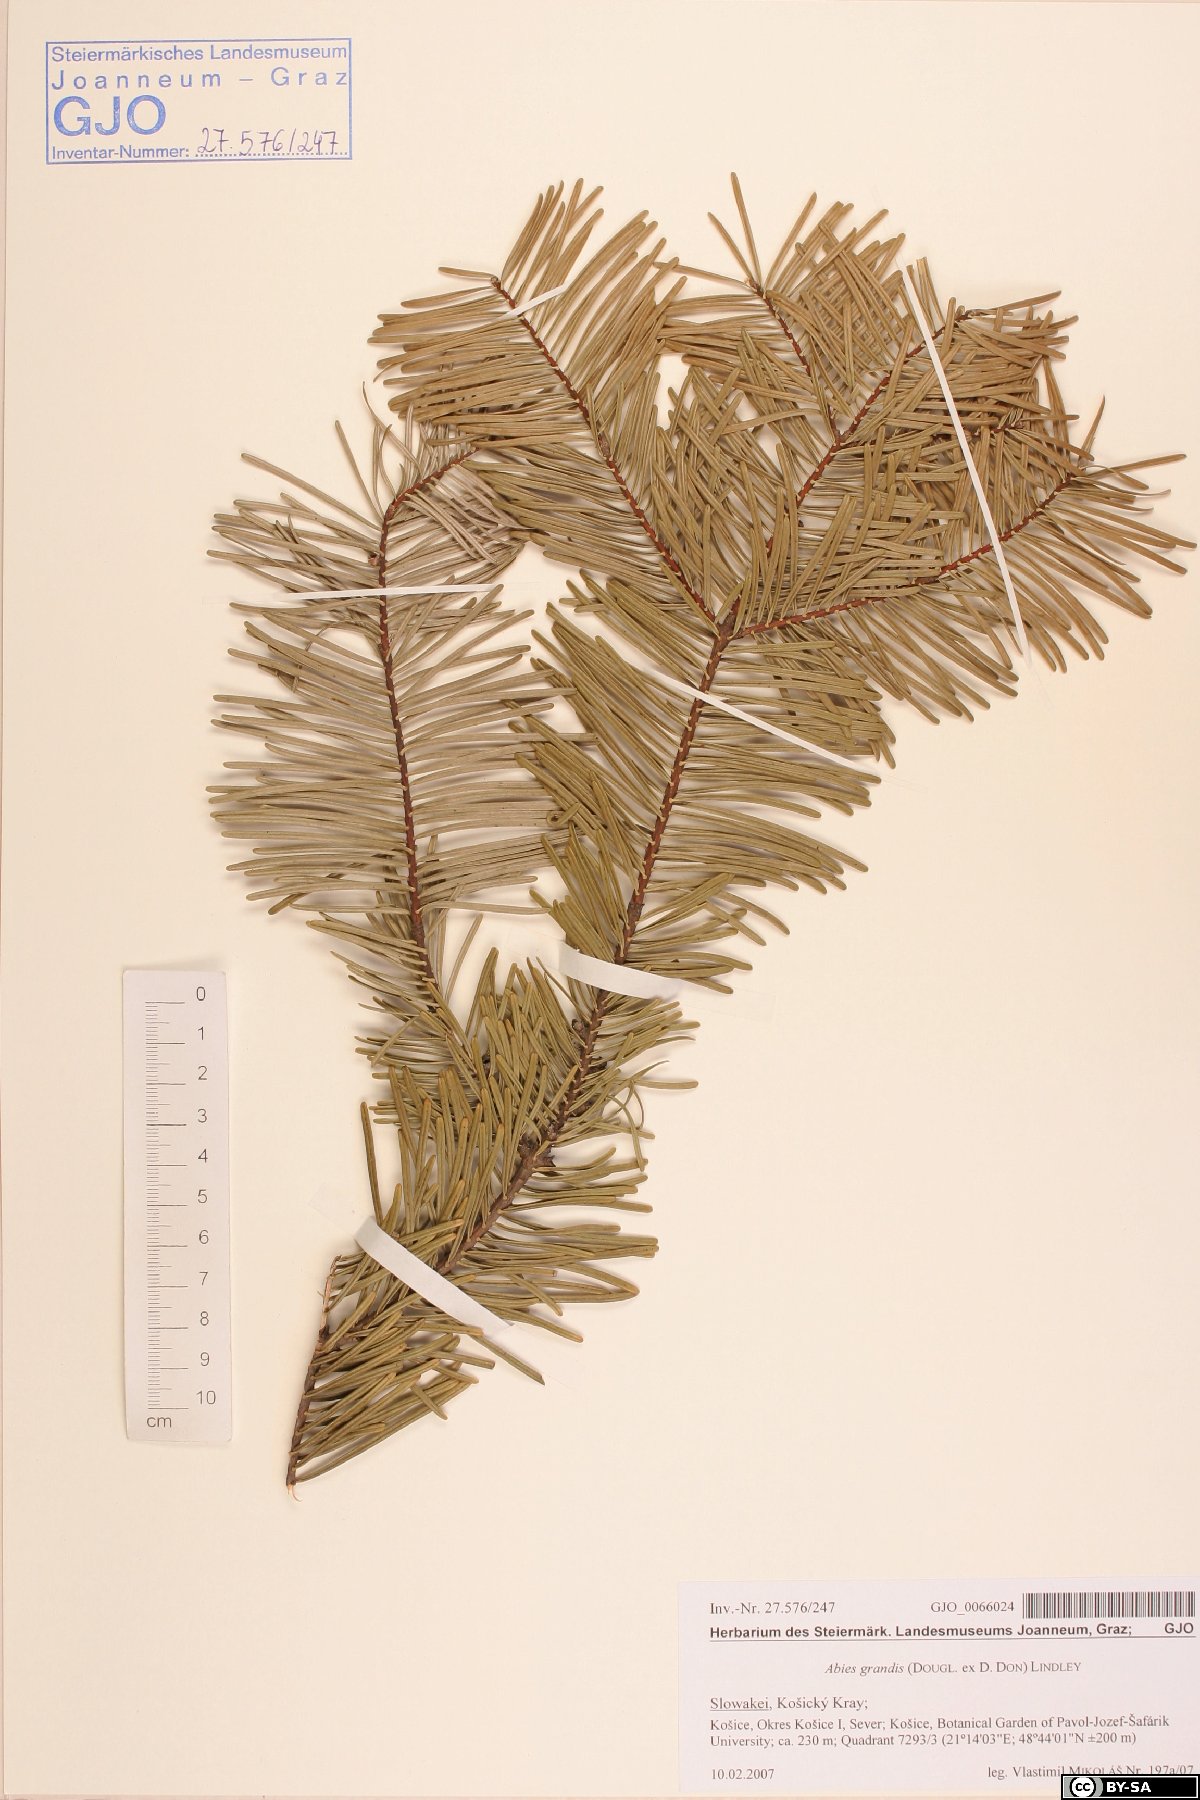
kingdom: Plantae
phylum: Tracheophyta
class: Pinopsida
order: Pinales
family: Pinaceae
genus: Abies
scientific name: Abies grandis
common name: Giant fir
